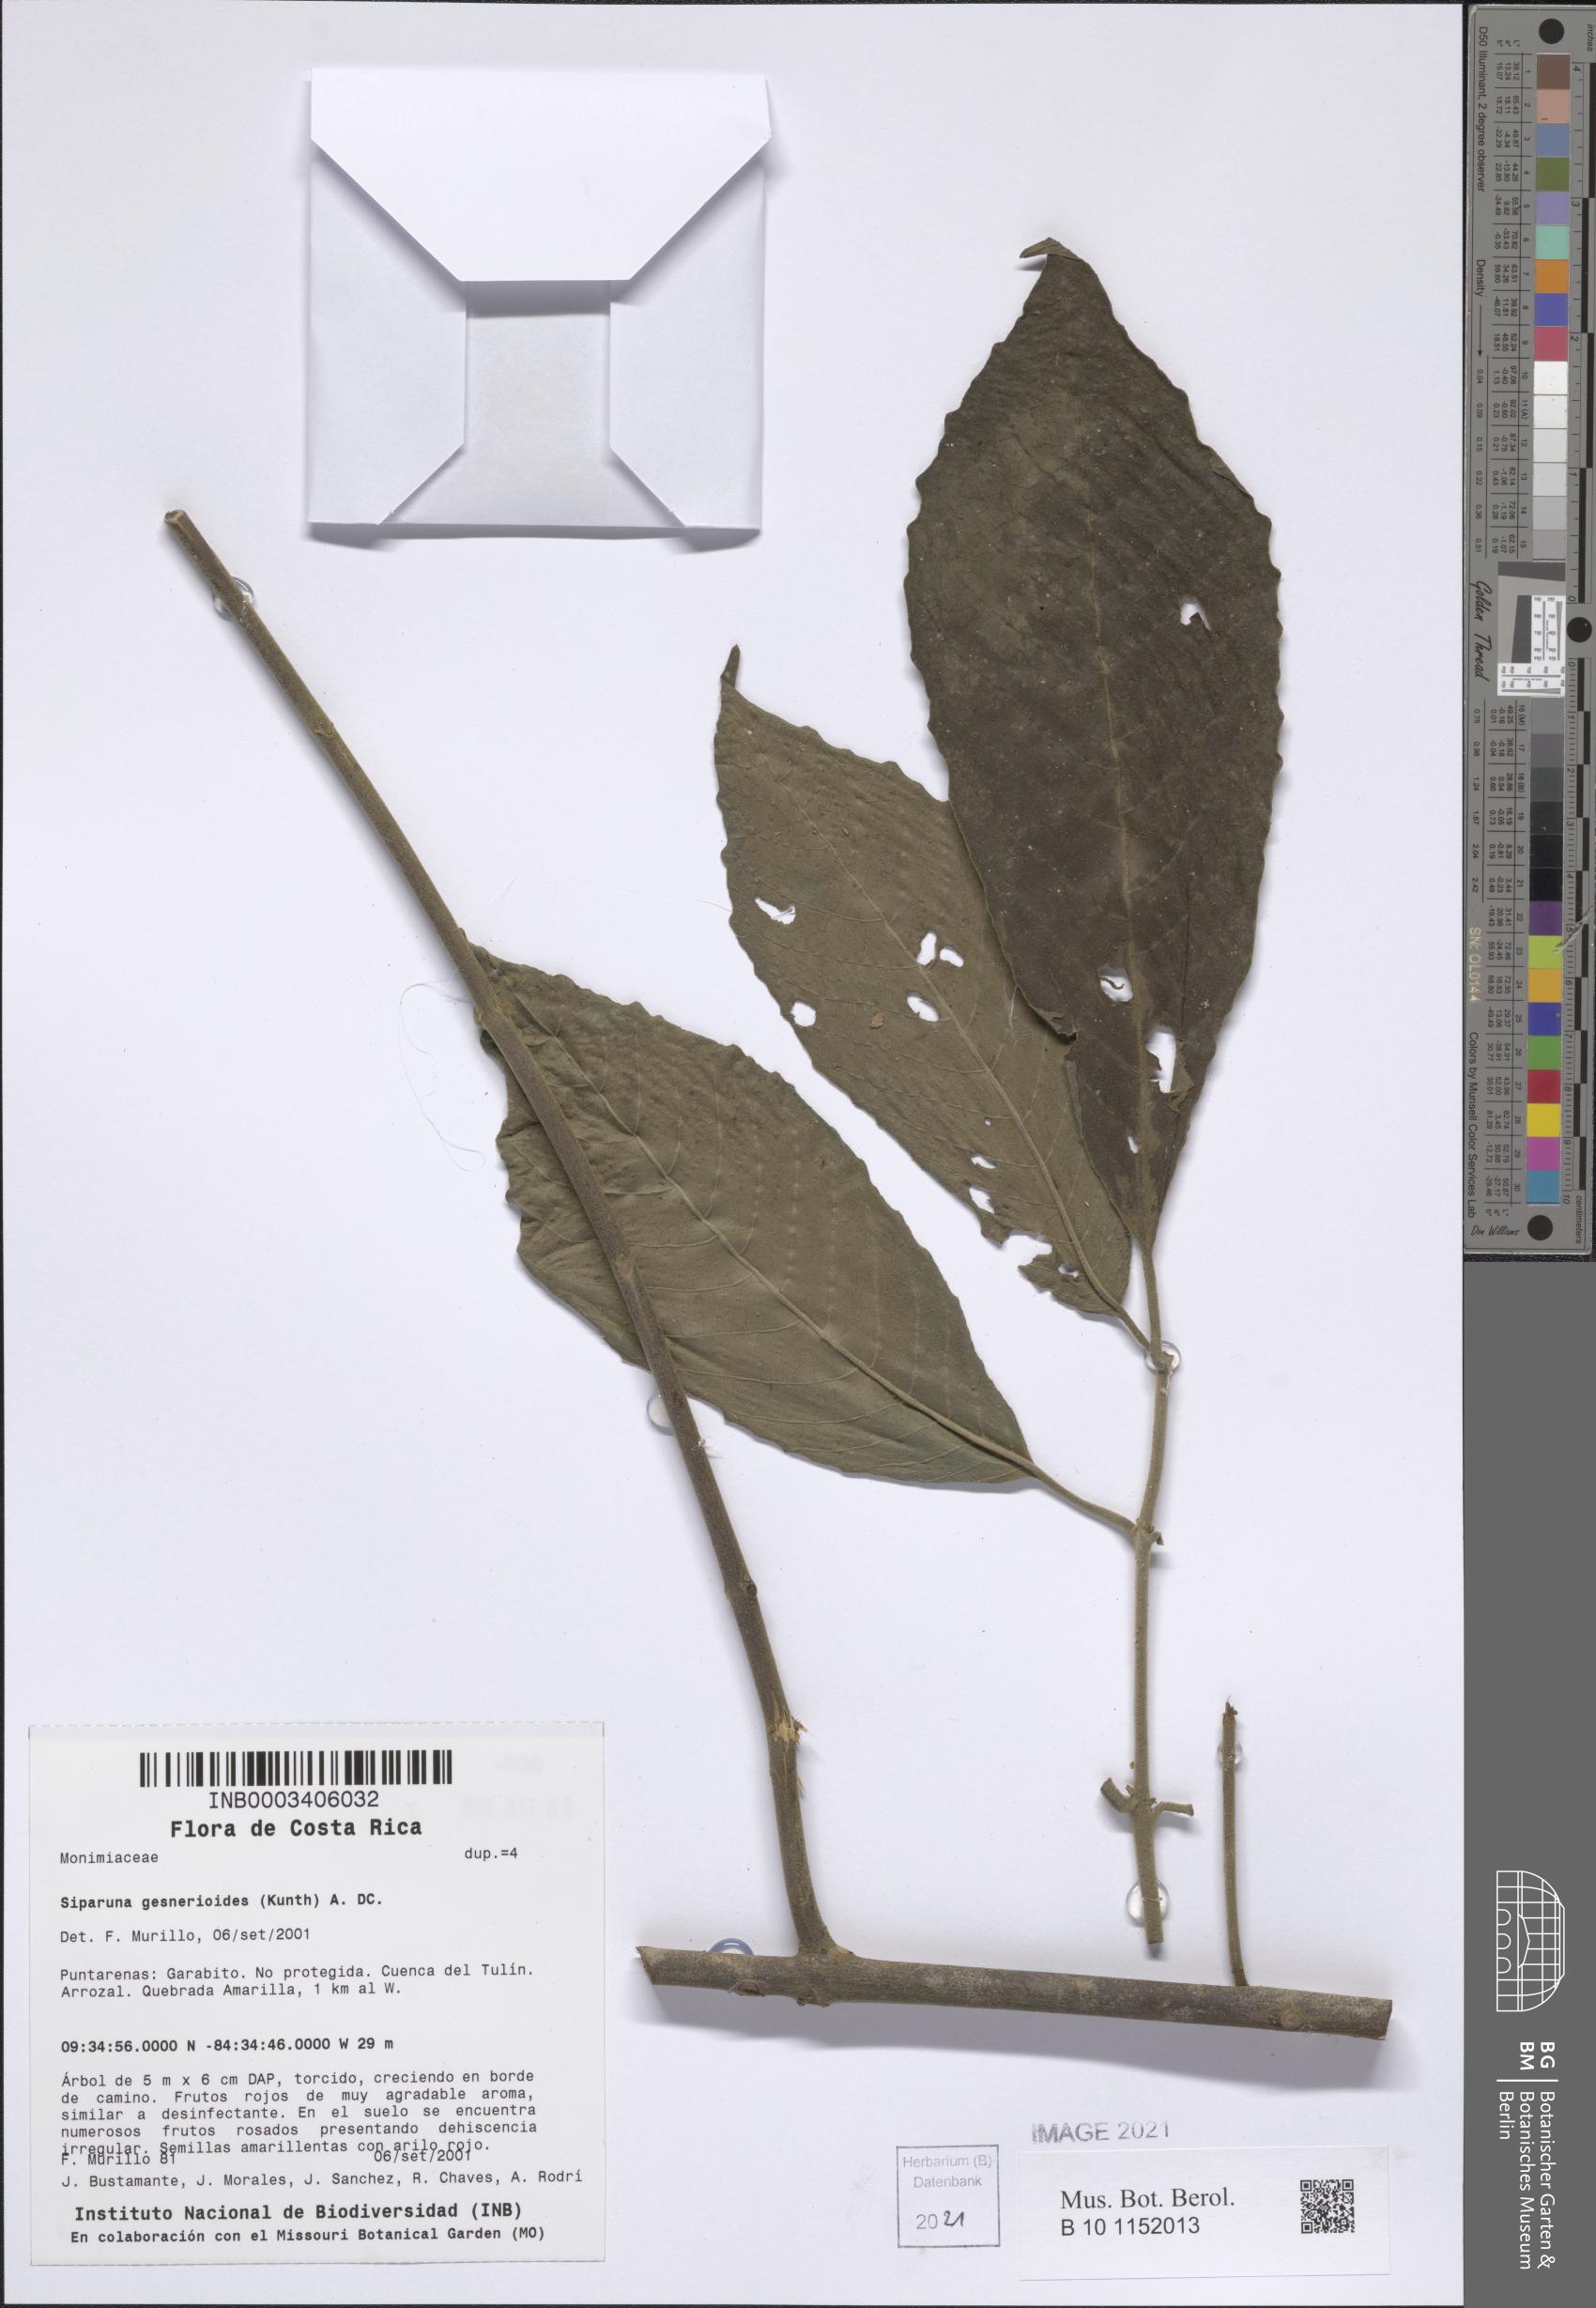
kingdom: Plantae
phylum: Tracheophyta
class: Magnoliopsida
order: Laurales
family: Siparunaceae
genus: Siparuna
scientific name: Siparuna gesnerioides
